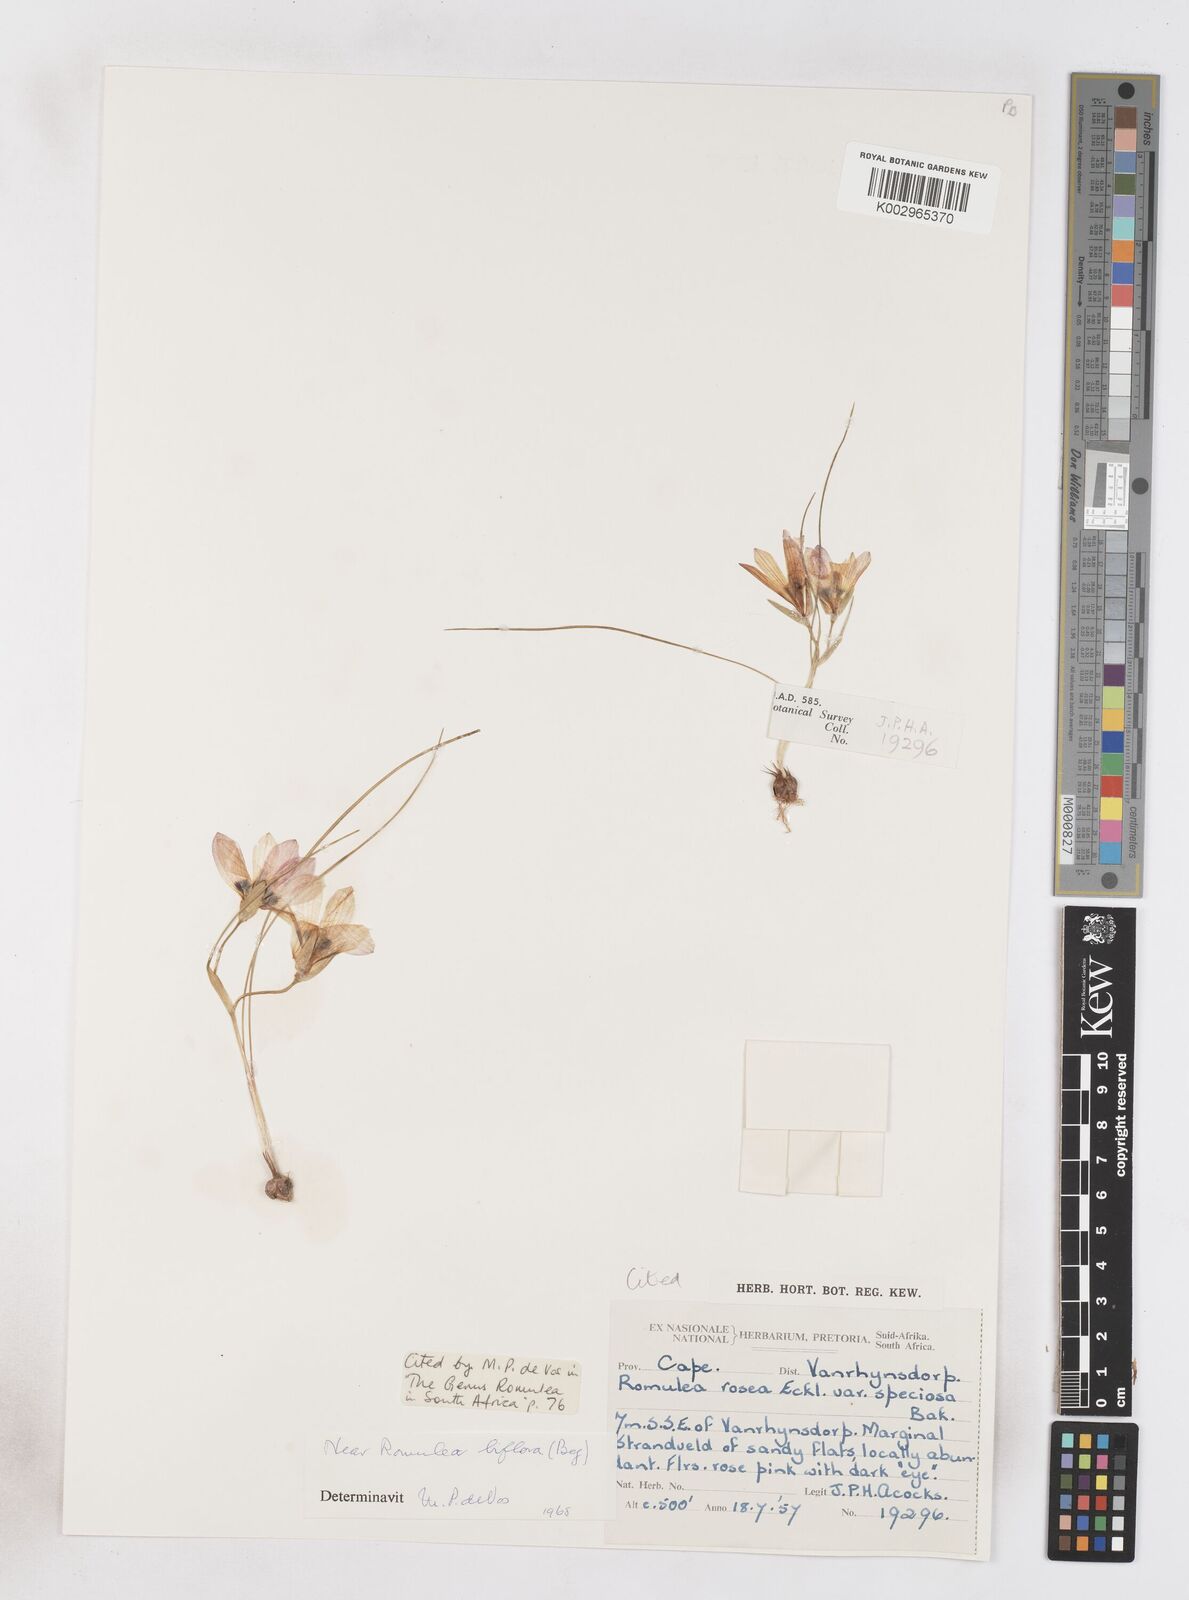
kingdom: Plantae
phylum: Tracheophyta
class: Liliopsida
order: Asparagales
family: Iridaceae
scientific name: Iridaceae
